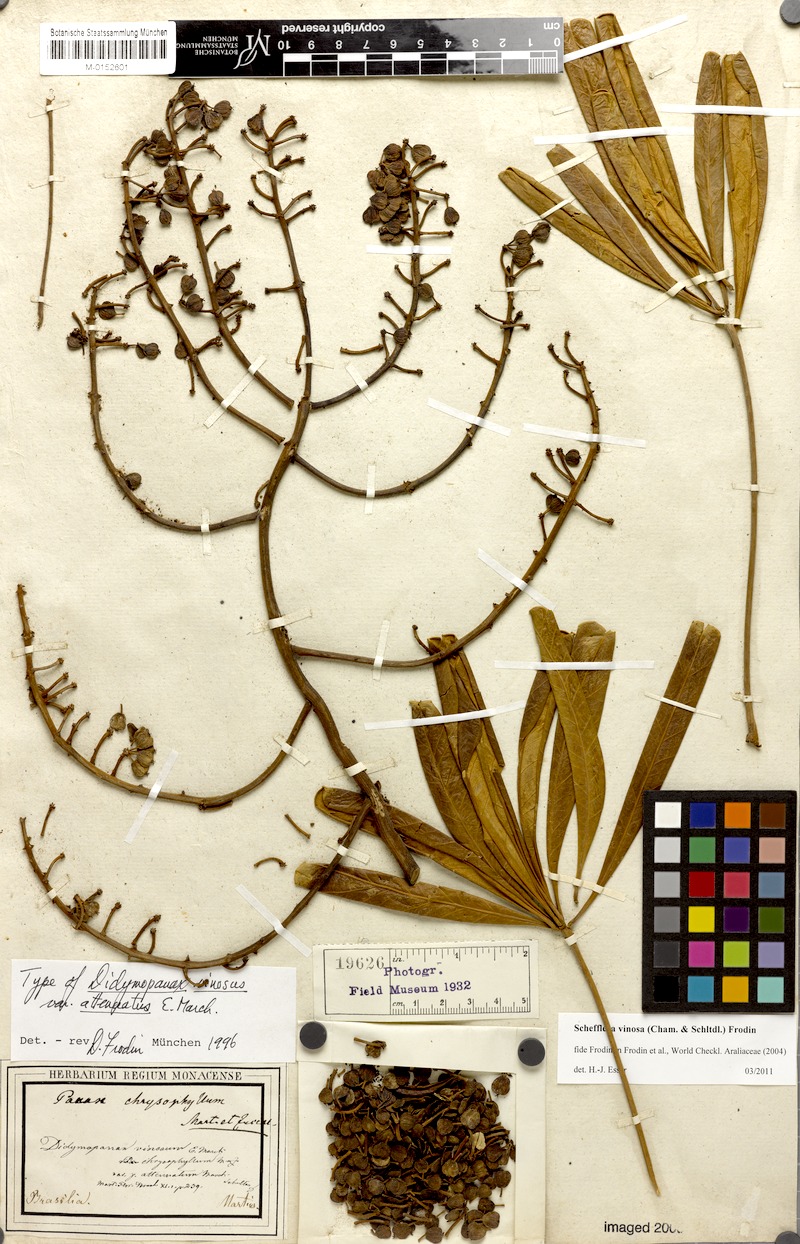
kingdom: Plantae
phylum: Tracheophyta
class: Magnoliopsida
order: Apiales
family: Araliaceae
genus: Didymopanax
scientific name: Didymopanax vinosus
